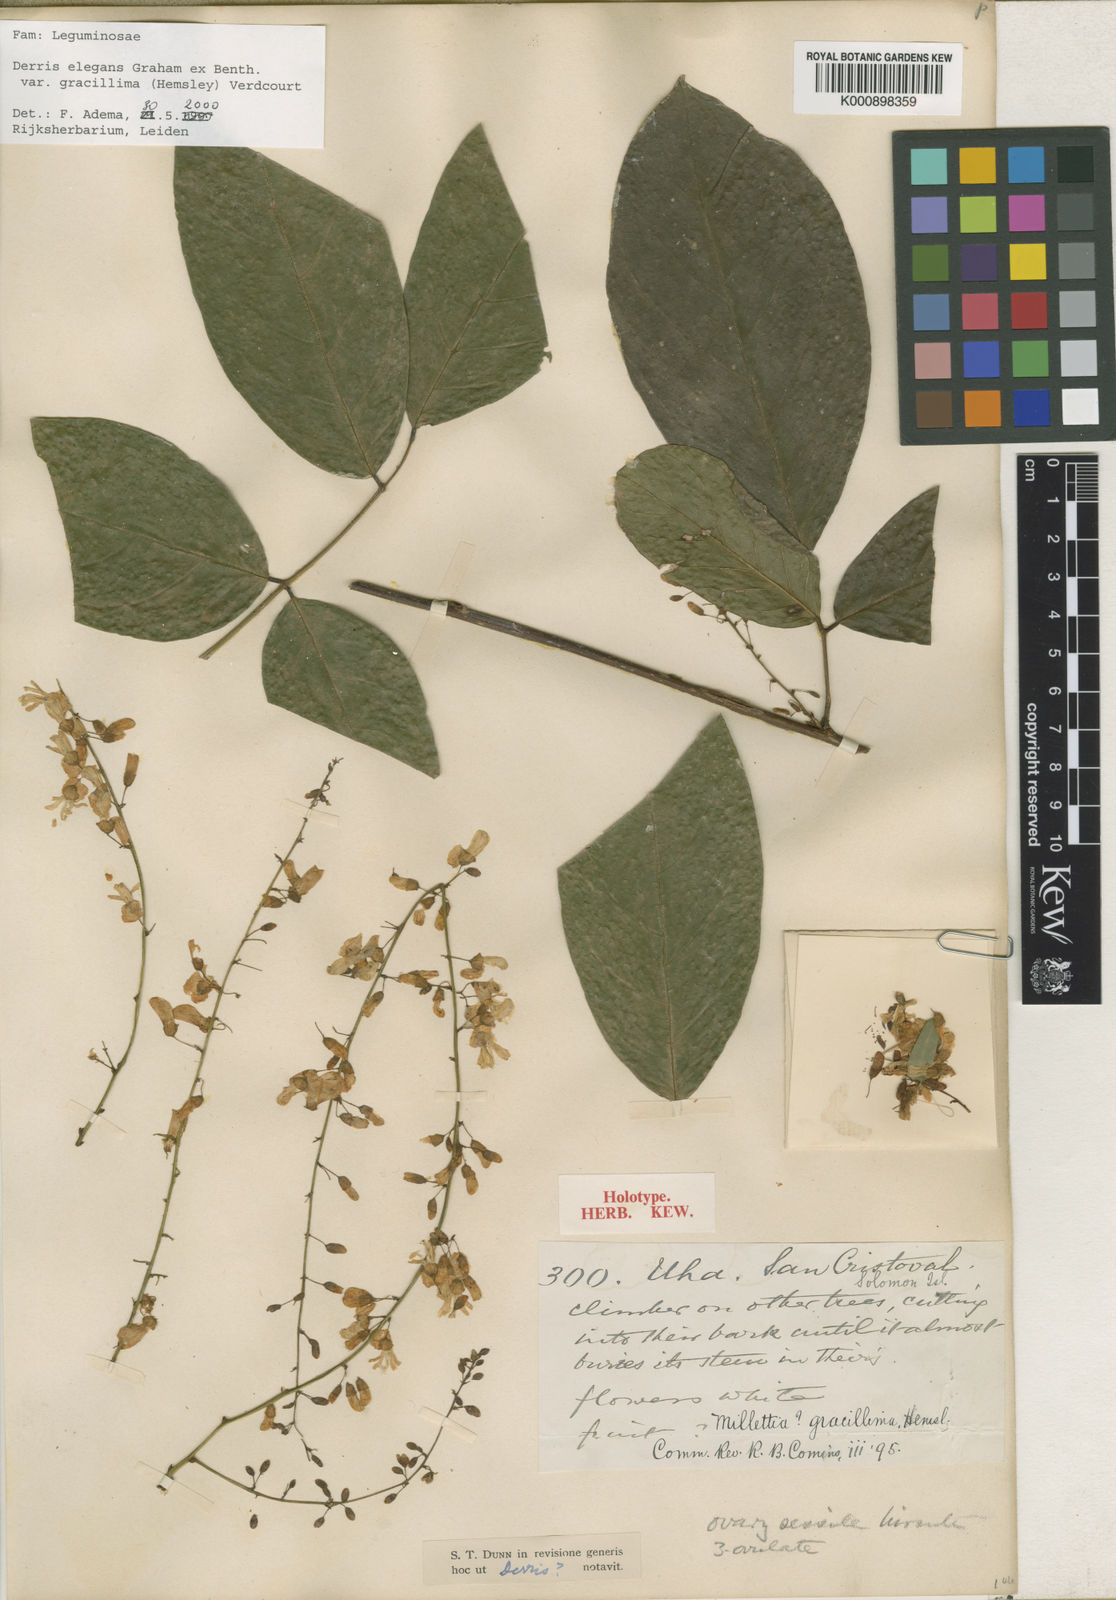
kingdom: Plantae
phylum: Tracheophyta
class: Magnoliopsida
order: Fabales
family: Fabaceae
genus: Derris
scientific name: Derris elegans
